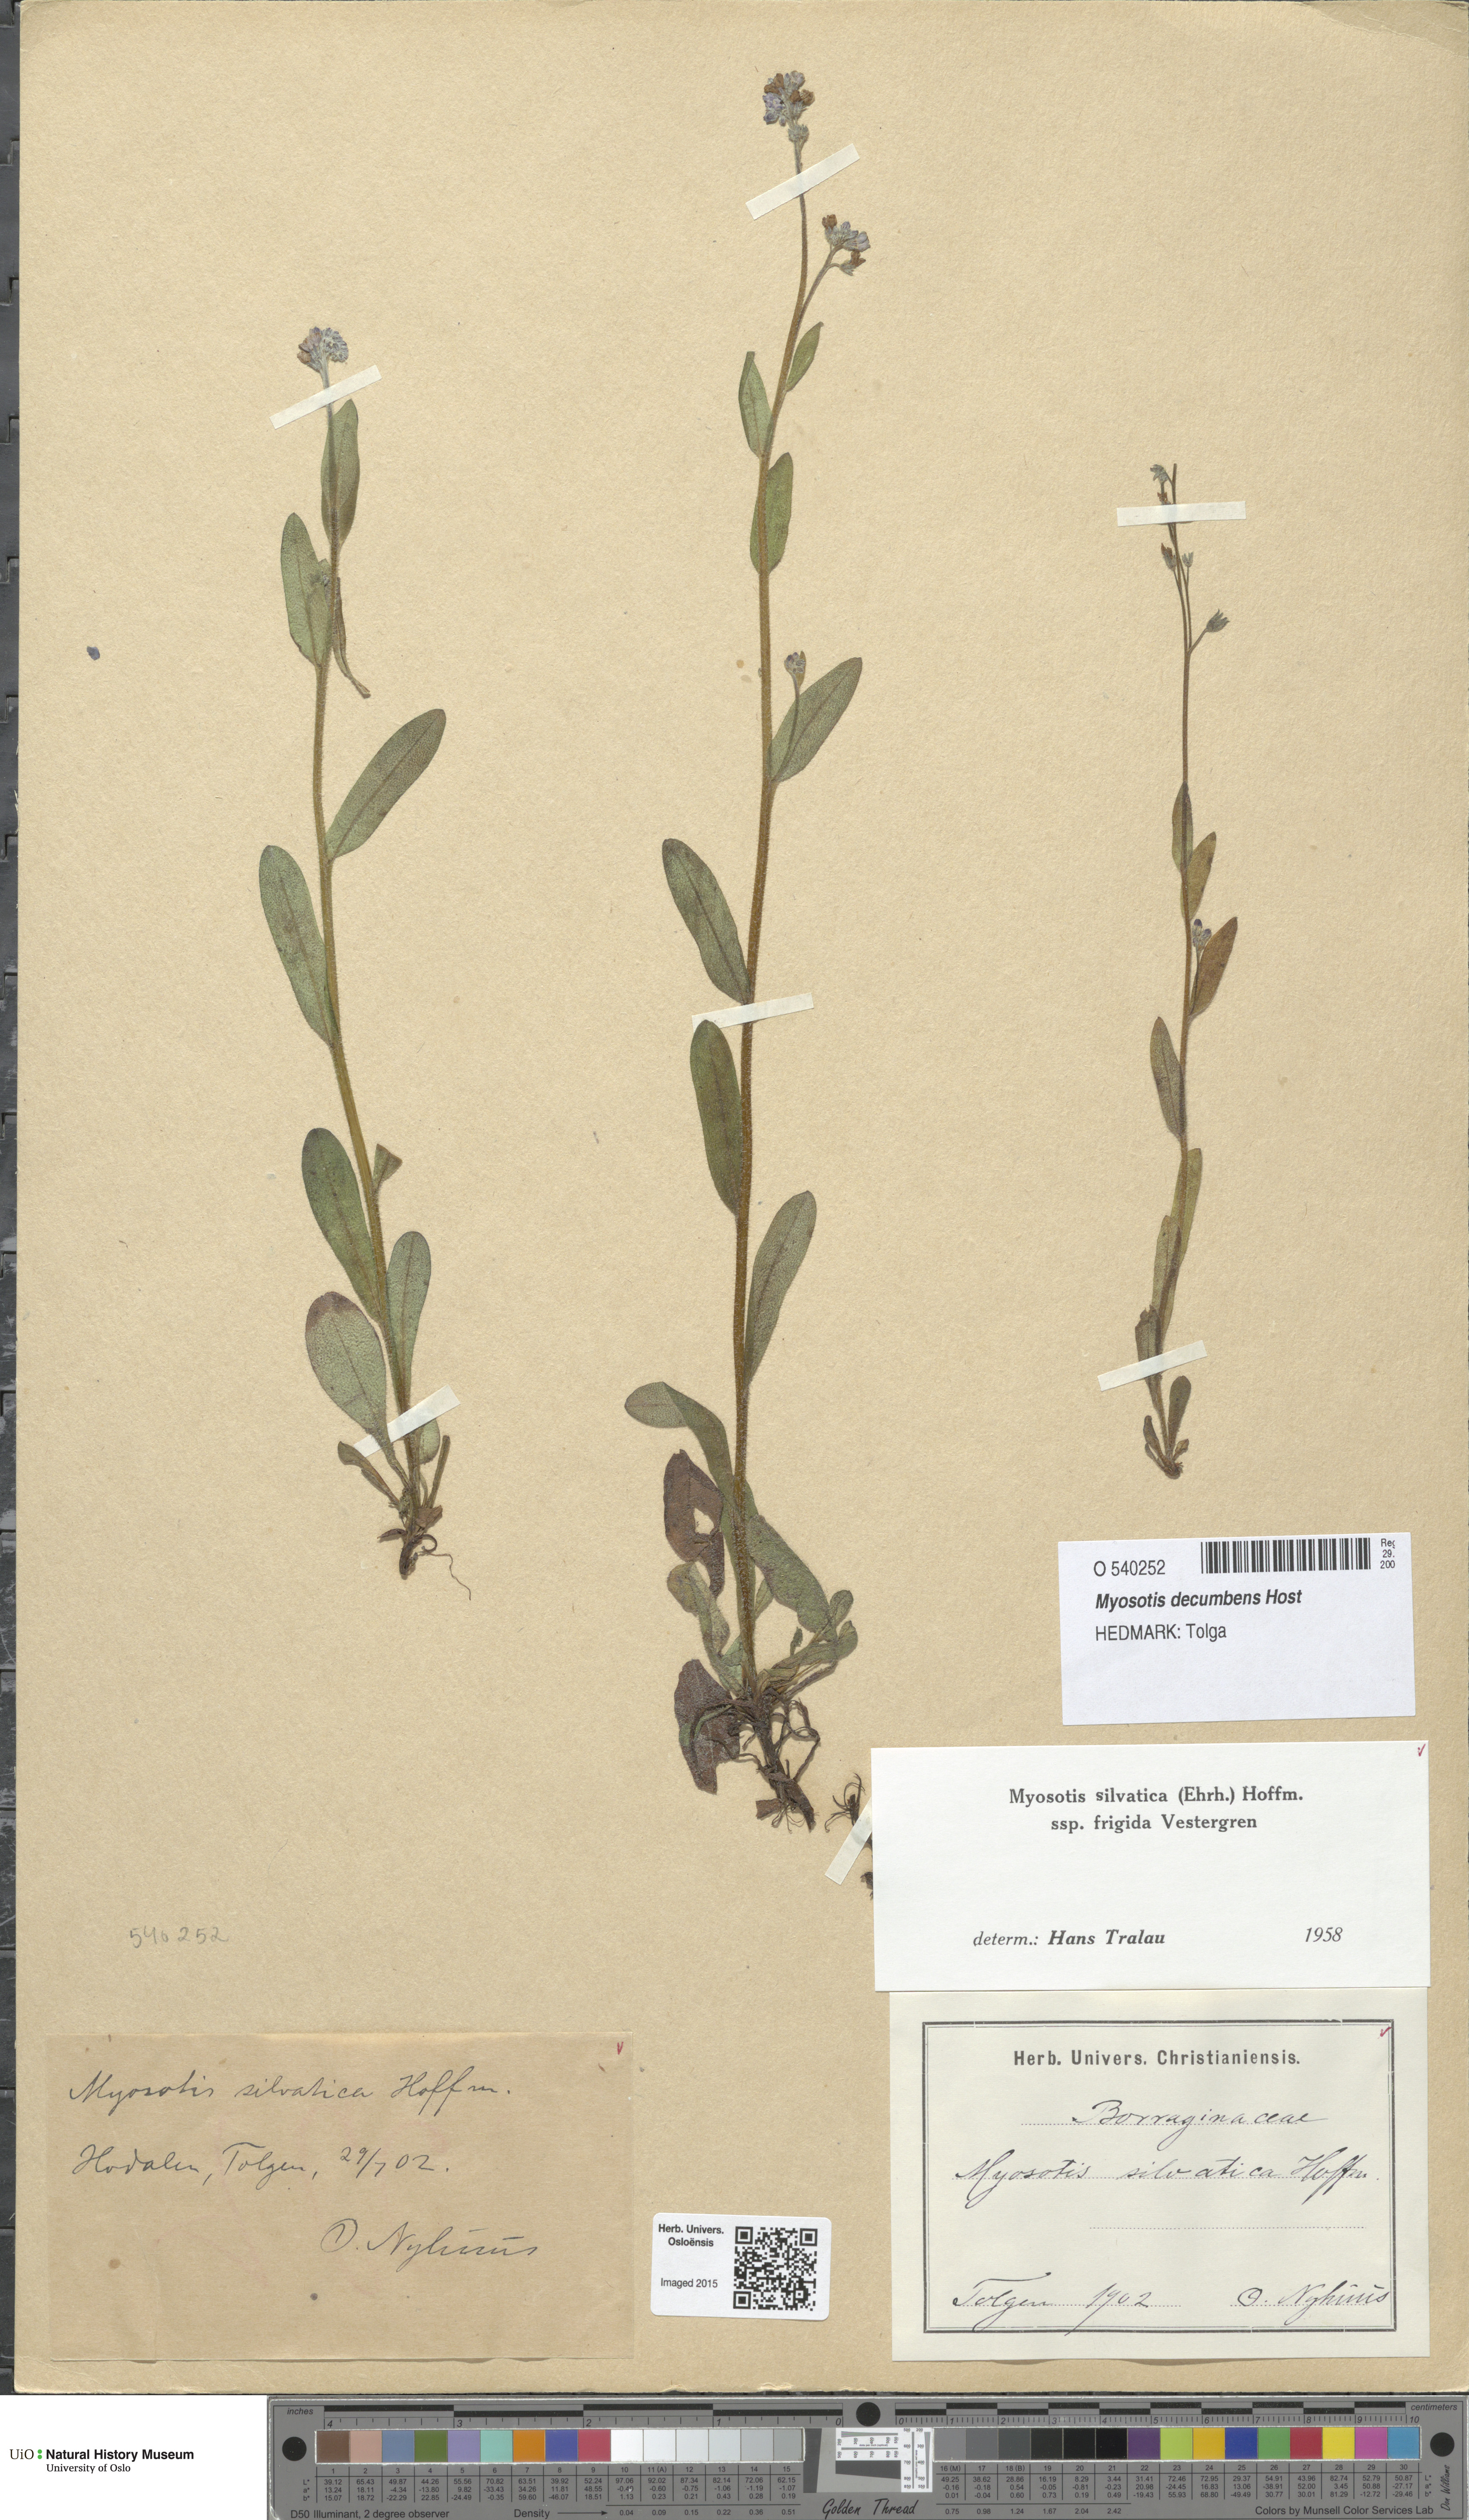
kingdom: Plantae
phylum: Tracheophyta
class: Magnoliopsida
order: Boraginales
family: Boraginaceae
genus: Myosotis
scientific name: Myosotis decumbens
